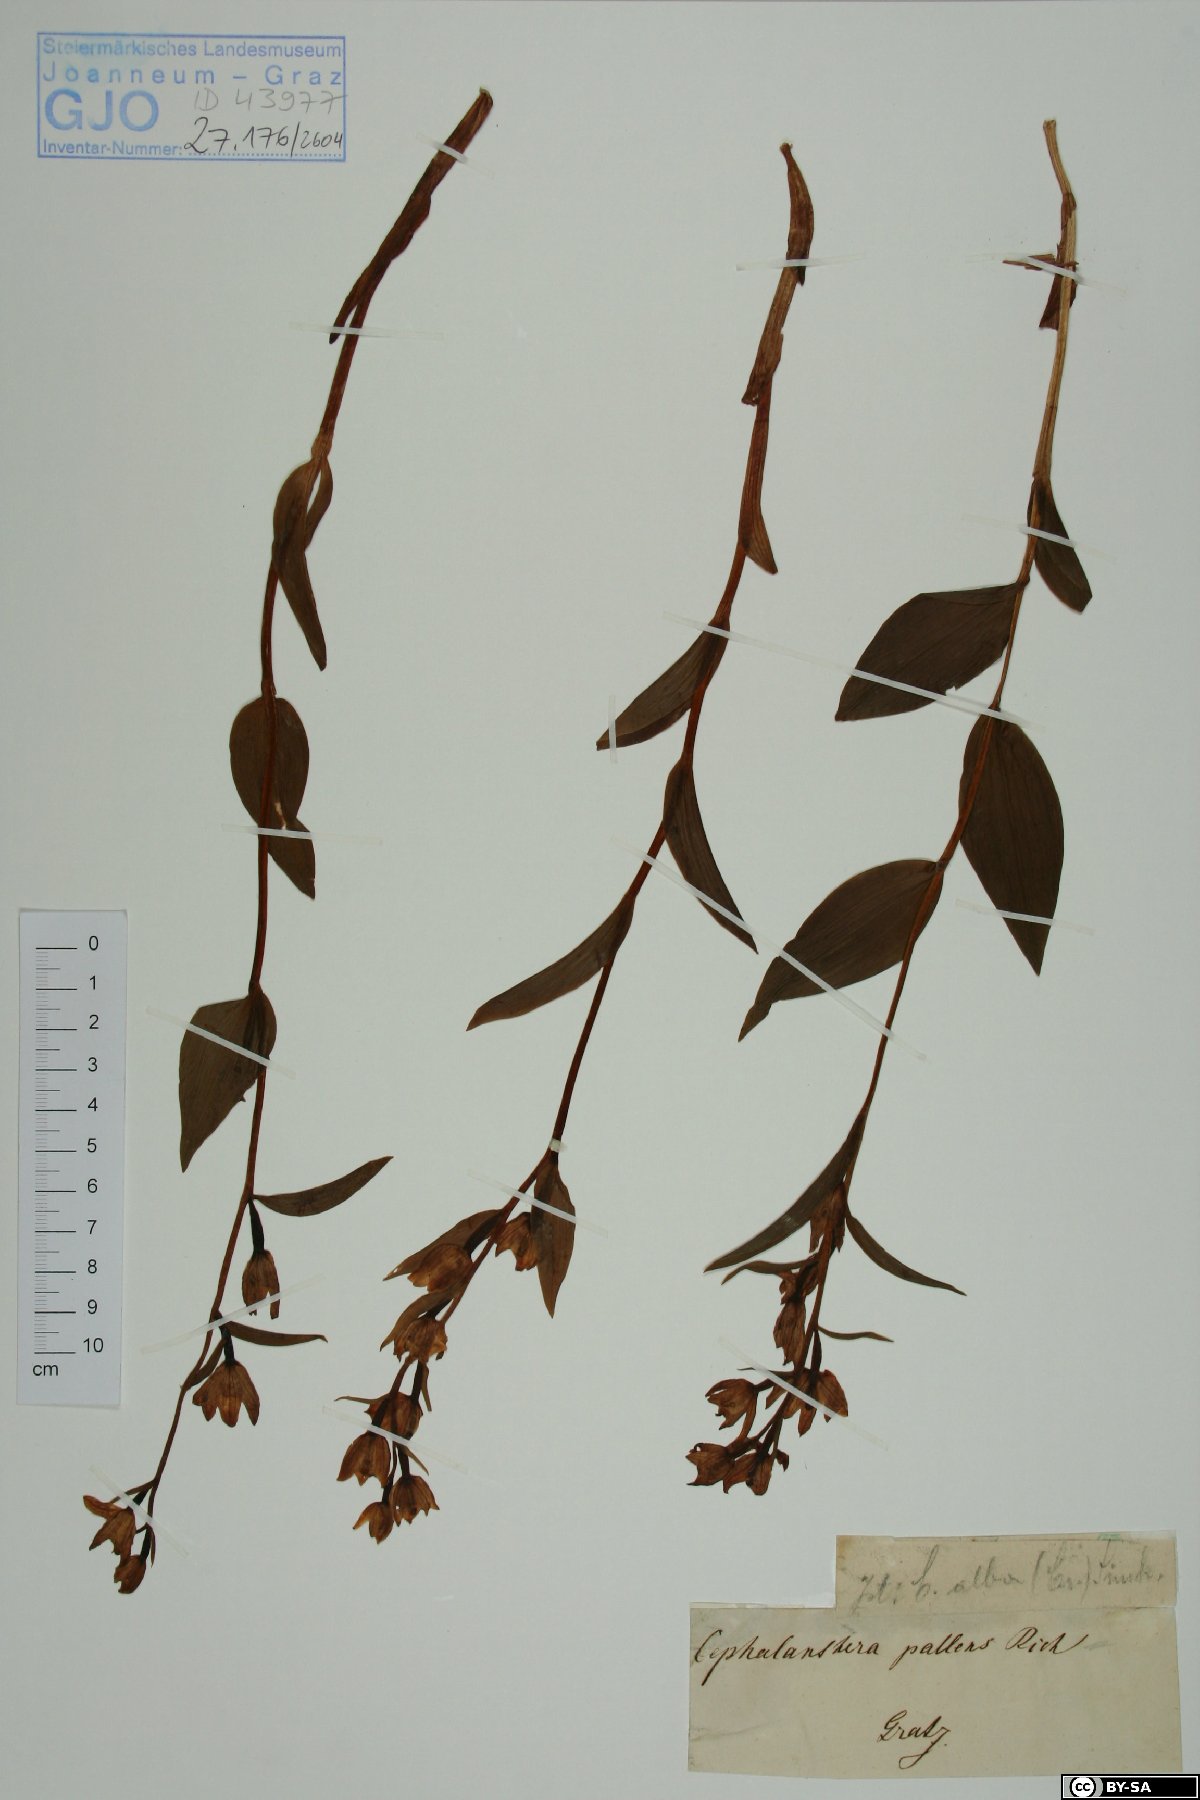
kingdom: Plantae
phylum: Tracheophyta
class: Liliopsida
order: Asparagales
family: Orchidaceae
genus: Cephalanthera
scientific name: Cephalanthera longifolia
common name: Narrow-leaved helleborine
